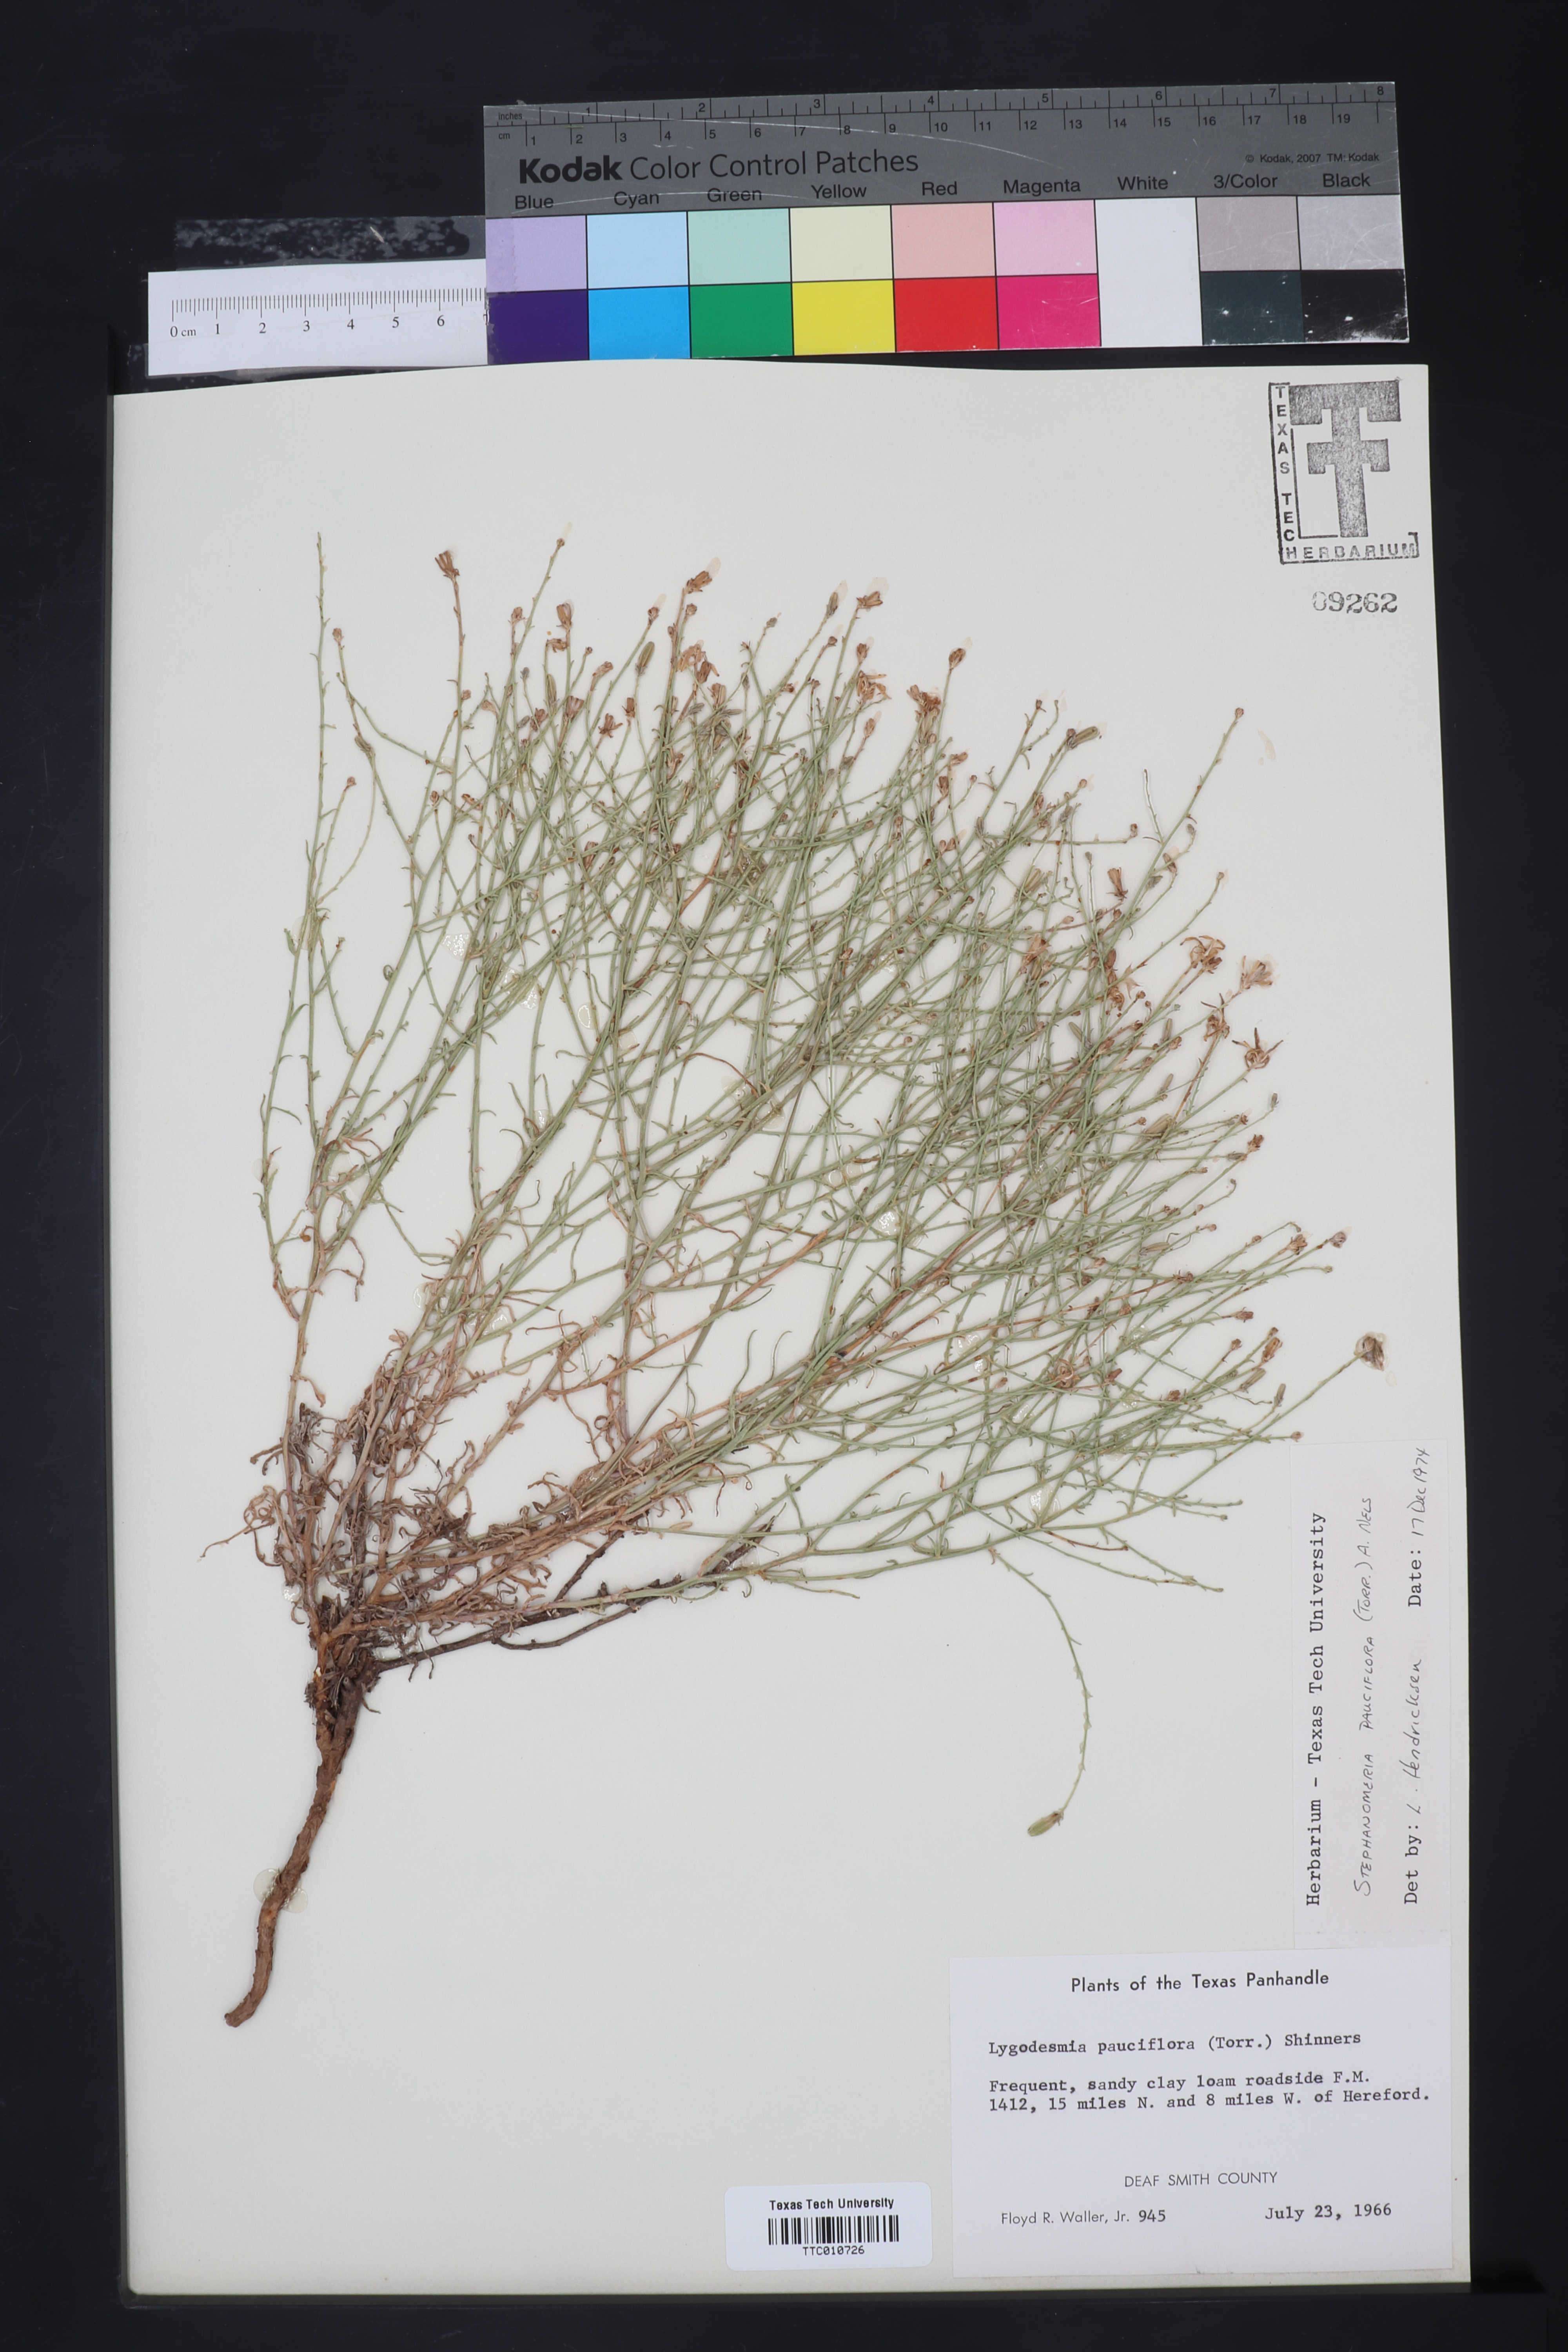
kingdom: Plantae
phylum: Tracheophyta
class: Magnoliopsida
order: Asterales
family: Asteraceae
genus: Stephanomeria
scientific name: Stephanomeria pauciflora
